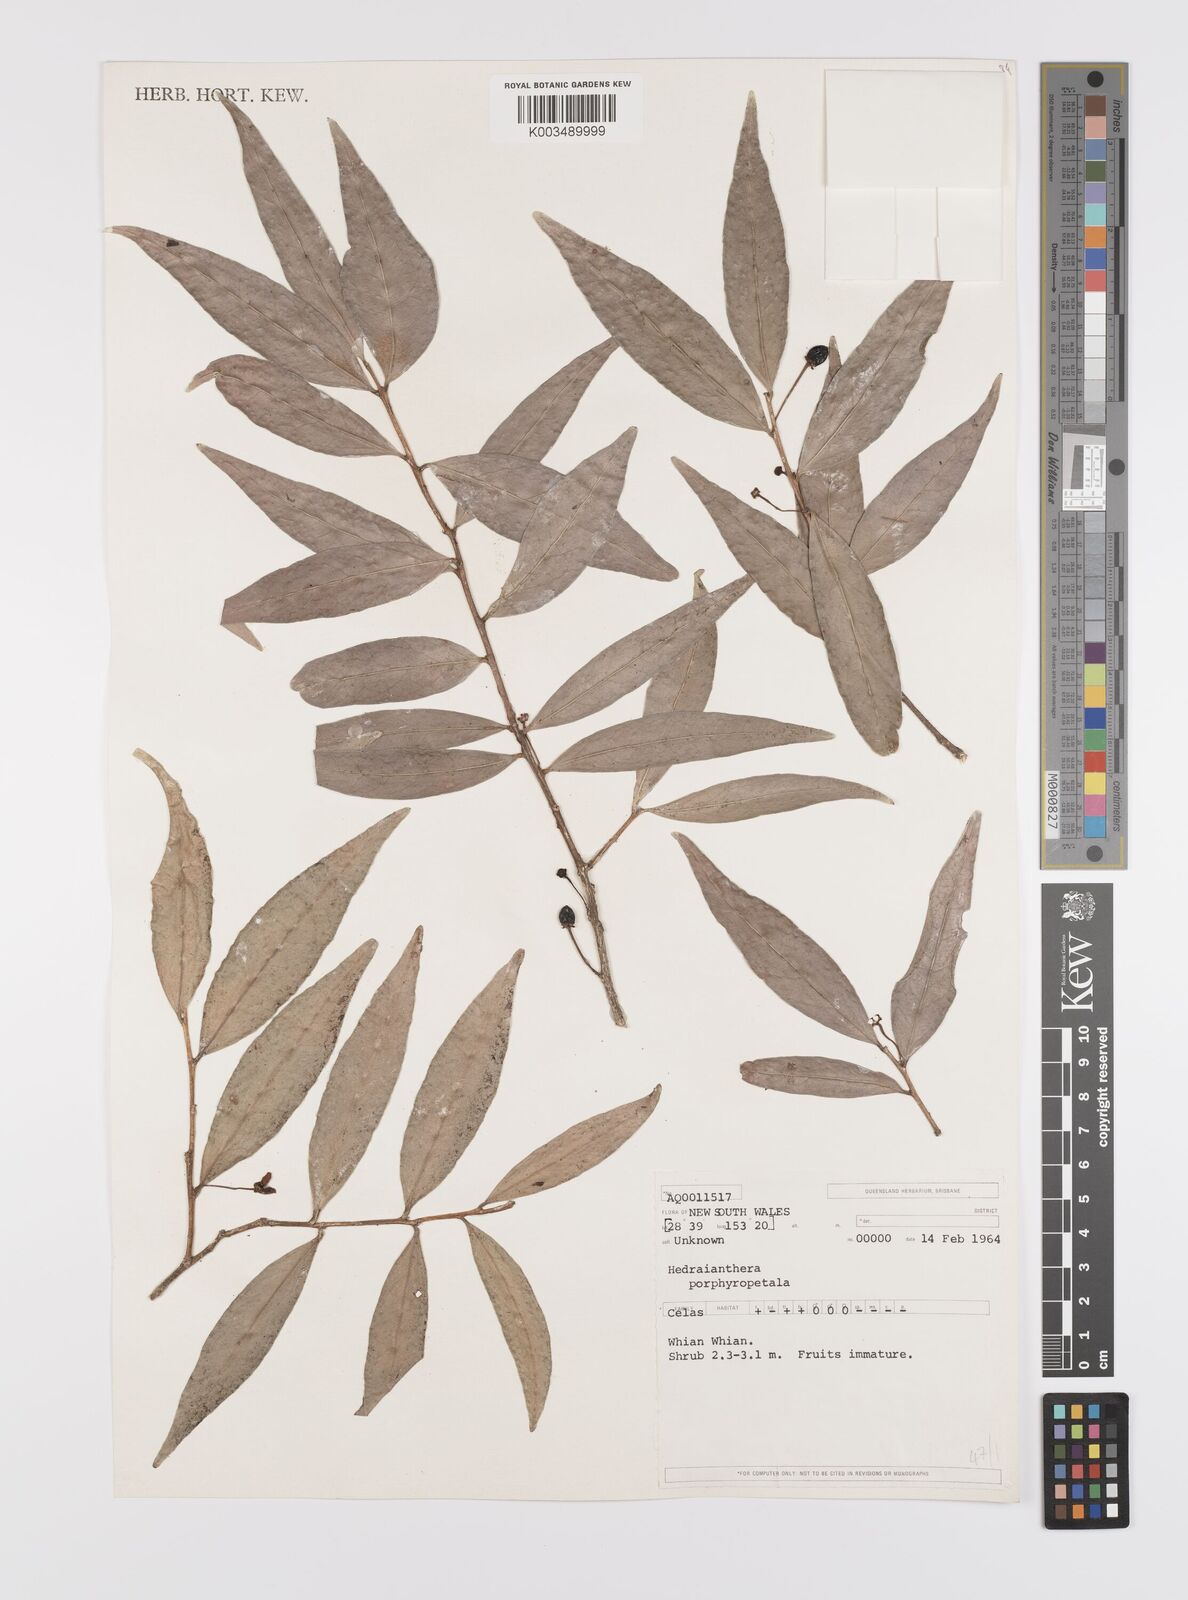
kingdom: Plantae
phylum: Tracheophyta
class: Magnoliopsida
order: Celastrales
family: Celastraceae
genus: Hedraianthera
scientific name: Hedraianthera porphyropetala
